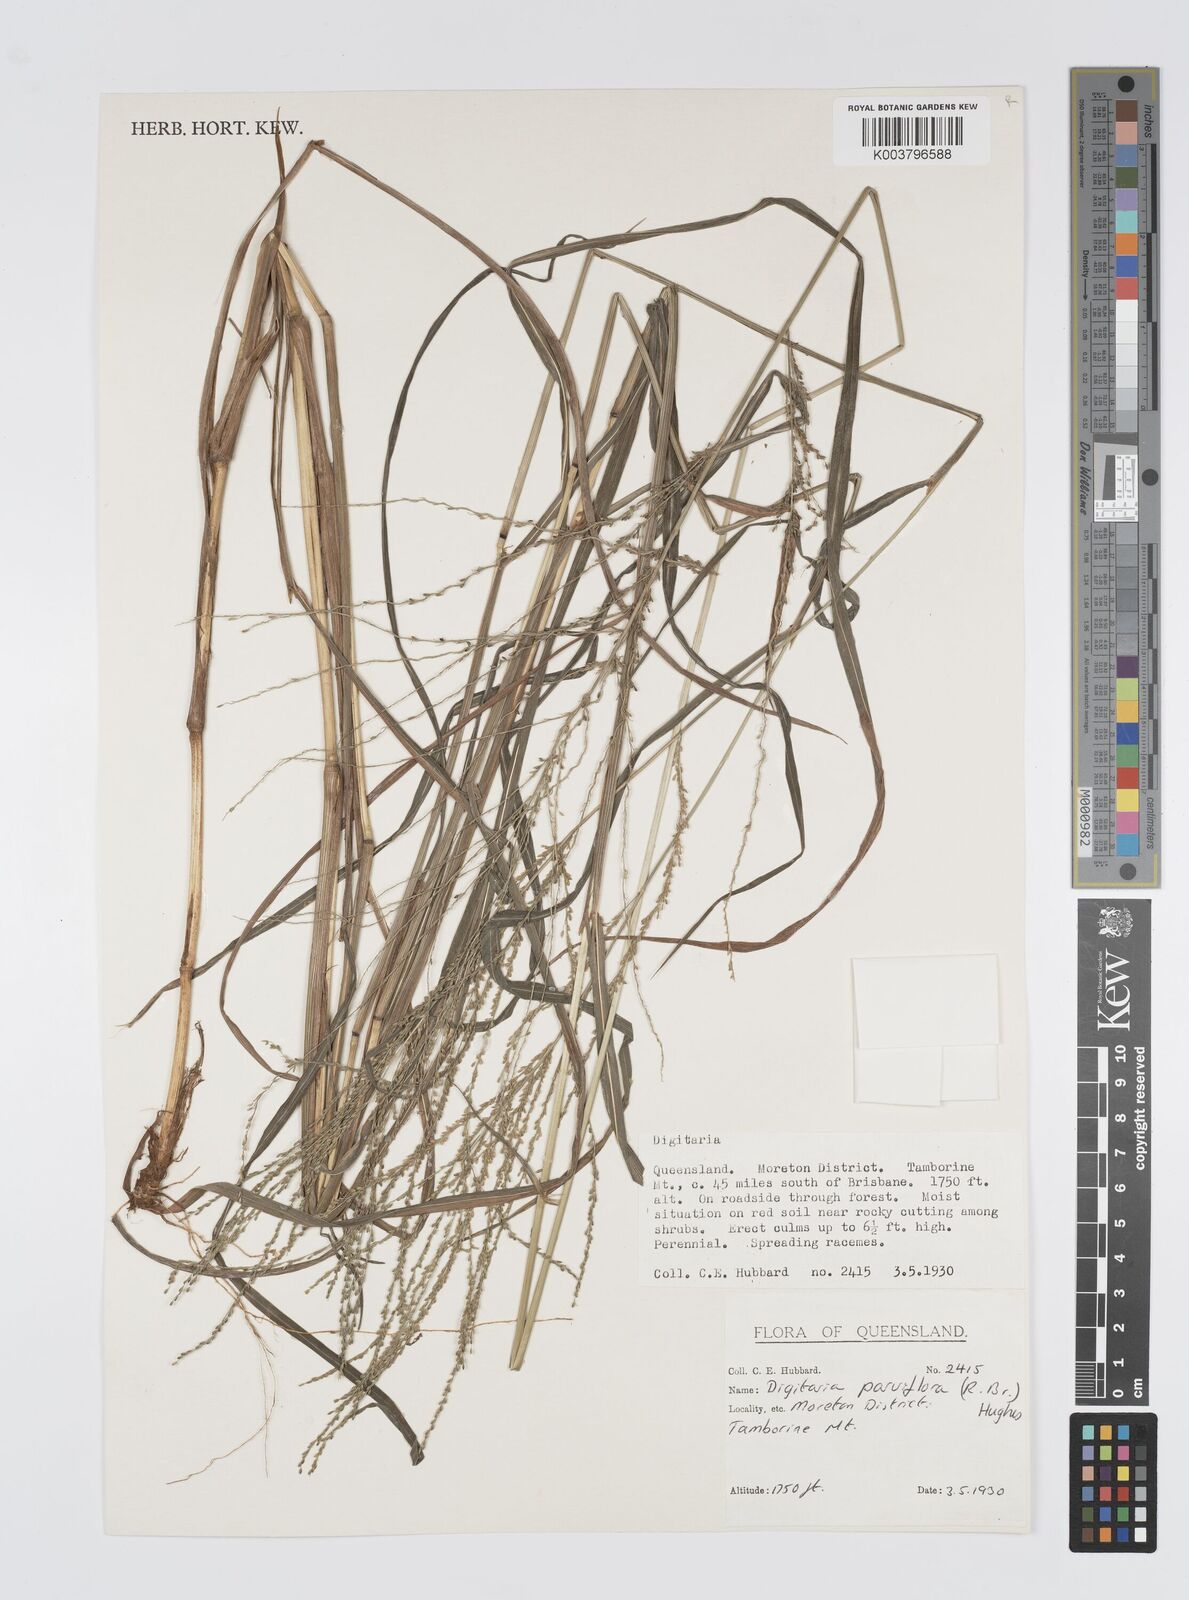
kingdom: Plantae
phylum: Tracheophyta
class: Liliopsida
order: Poales
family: Poaceae
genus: Digitaria
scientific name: Digitaria parviflora
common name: Small-flower finger grass
